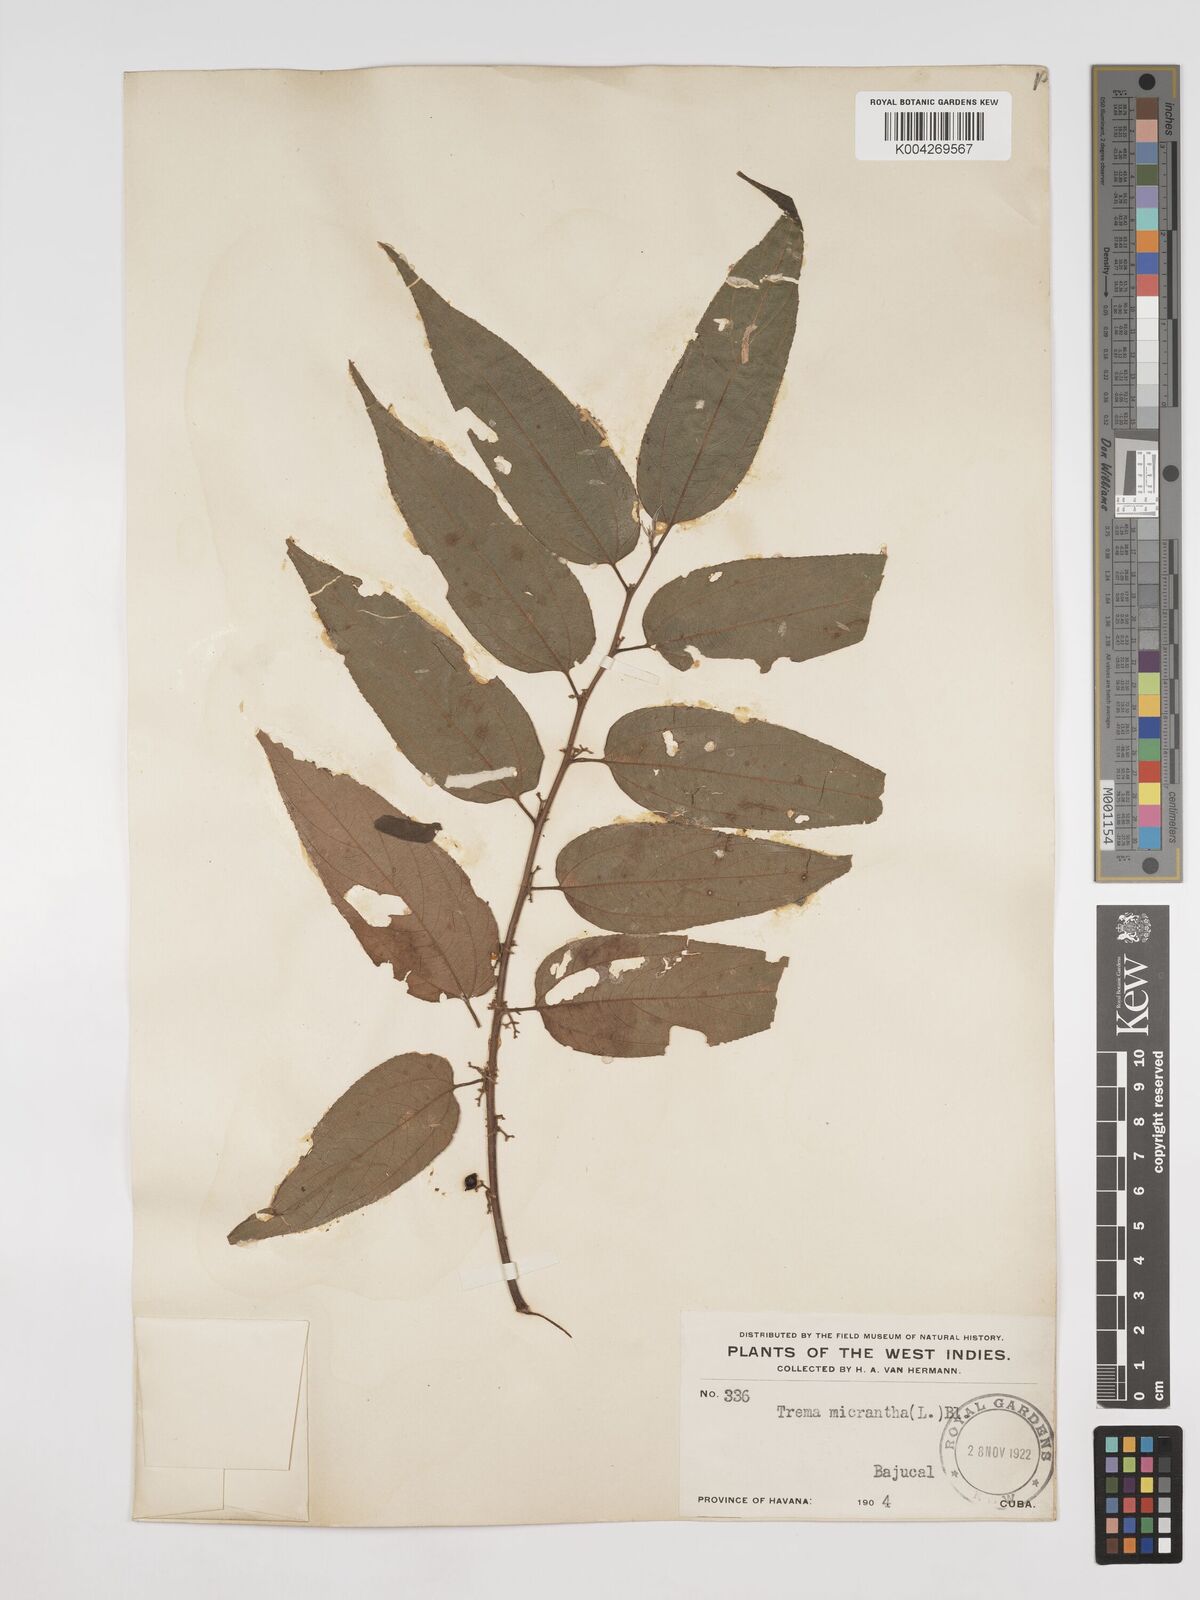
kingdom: Plantae
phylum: Tracheophyta
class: Magnoliopsida
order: Rosales
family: Cannabaceae
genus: Trema
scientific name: Trema micranthum
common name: Jamaican nettletree
